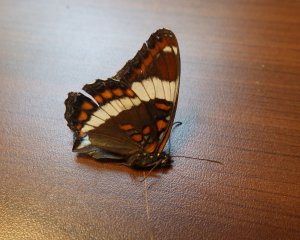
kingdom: Animalia
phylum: Arthropoda
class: Insecta
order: Lepidoptera
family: Nymphalidae
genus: Limenitis
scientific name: Limenitis arthemis
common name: Red-spotted Admiral
